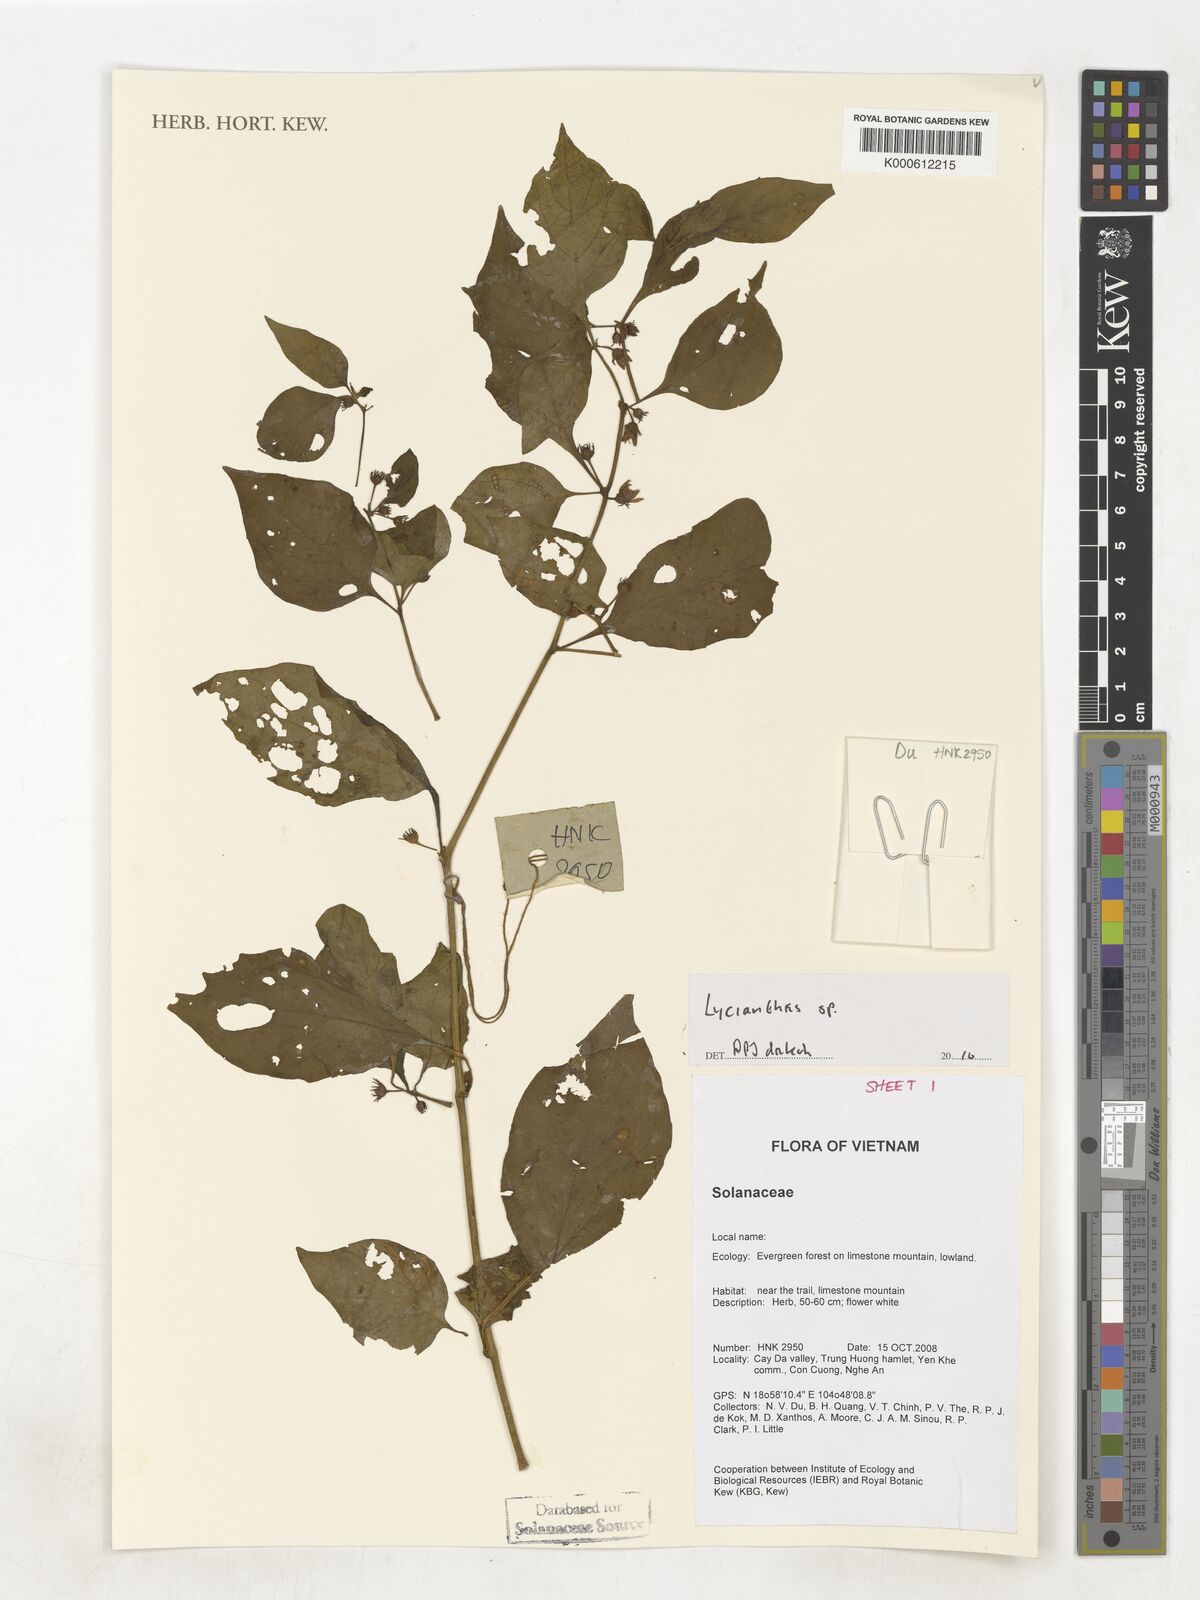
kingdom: Plantae
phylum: Tracheophyta
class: Magnoliopsida
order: Solanales
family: Solanaceae
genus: Lycianthes
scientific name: Lycianthes
